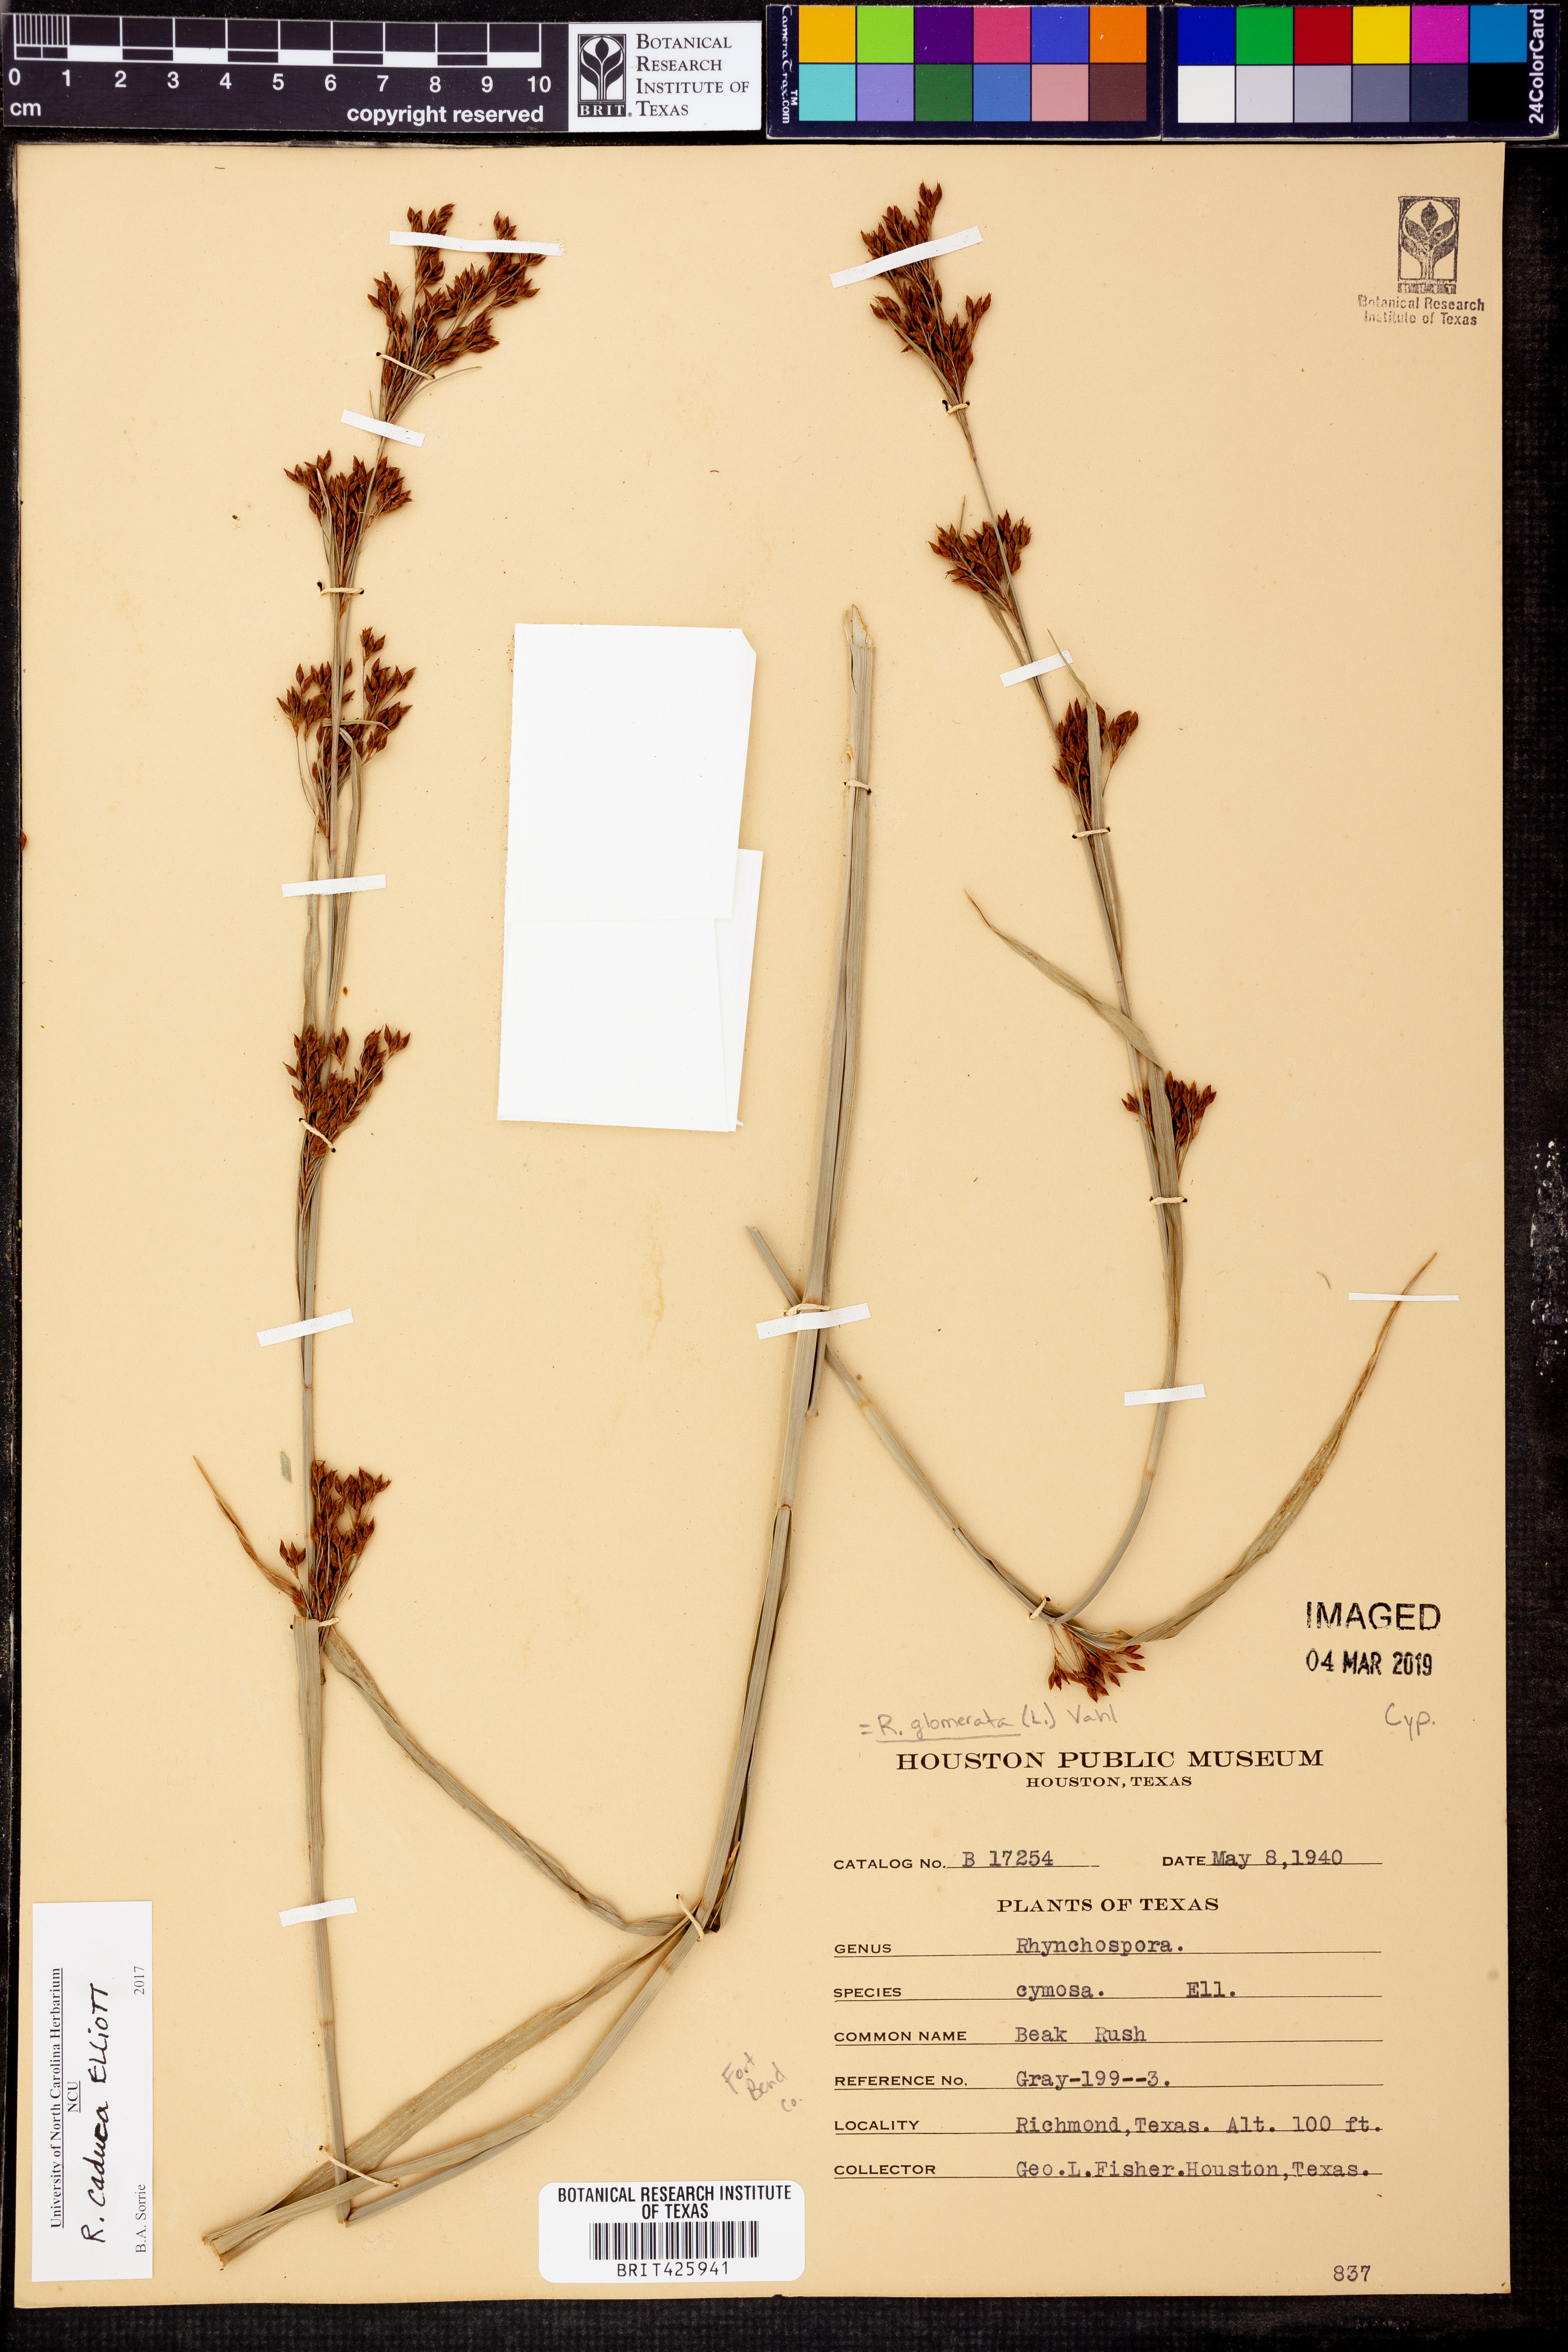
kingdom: Plantae
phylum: Tracheophyta
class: Liliopsida
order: Poales
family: Cyperaceae
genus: Scirpus
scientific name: Scirpus polyphyllus
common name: Leafy bulrush
